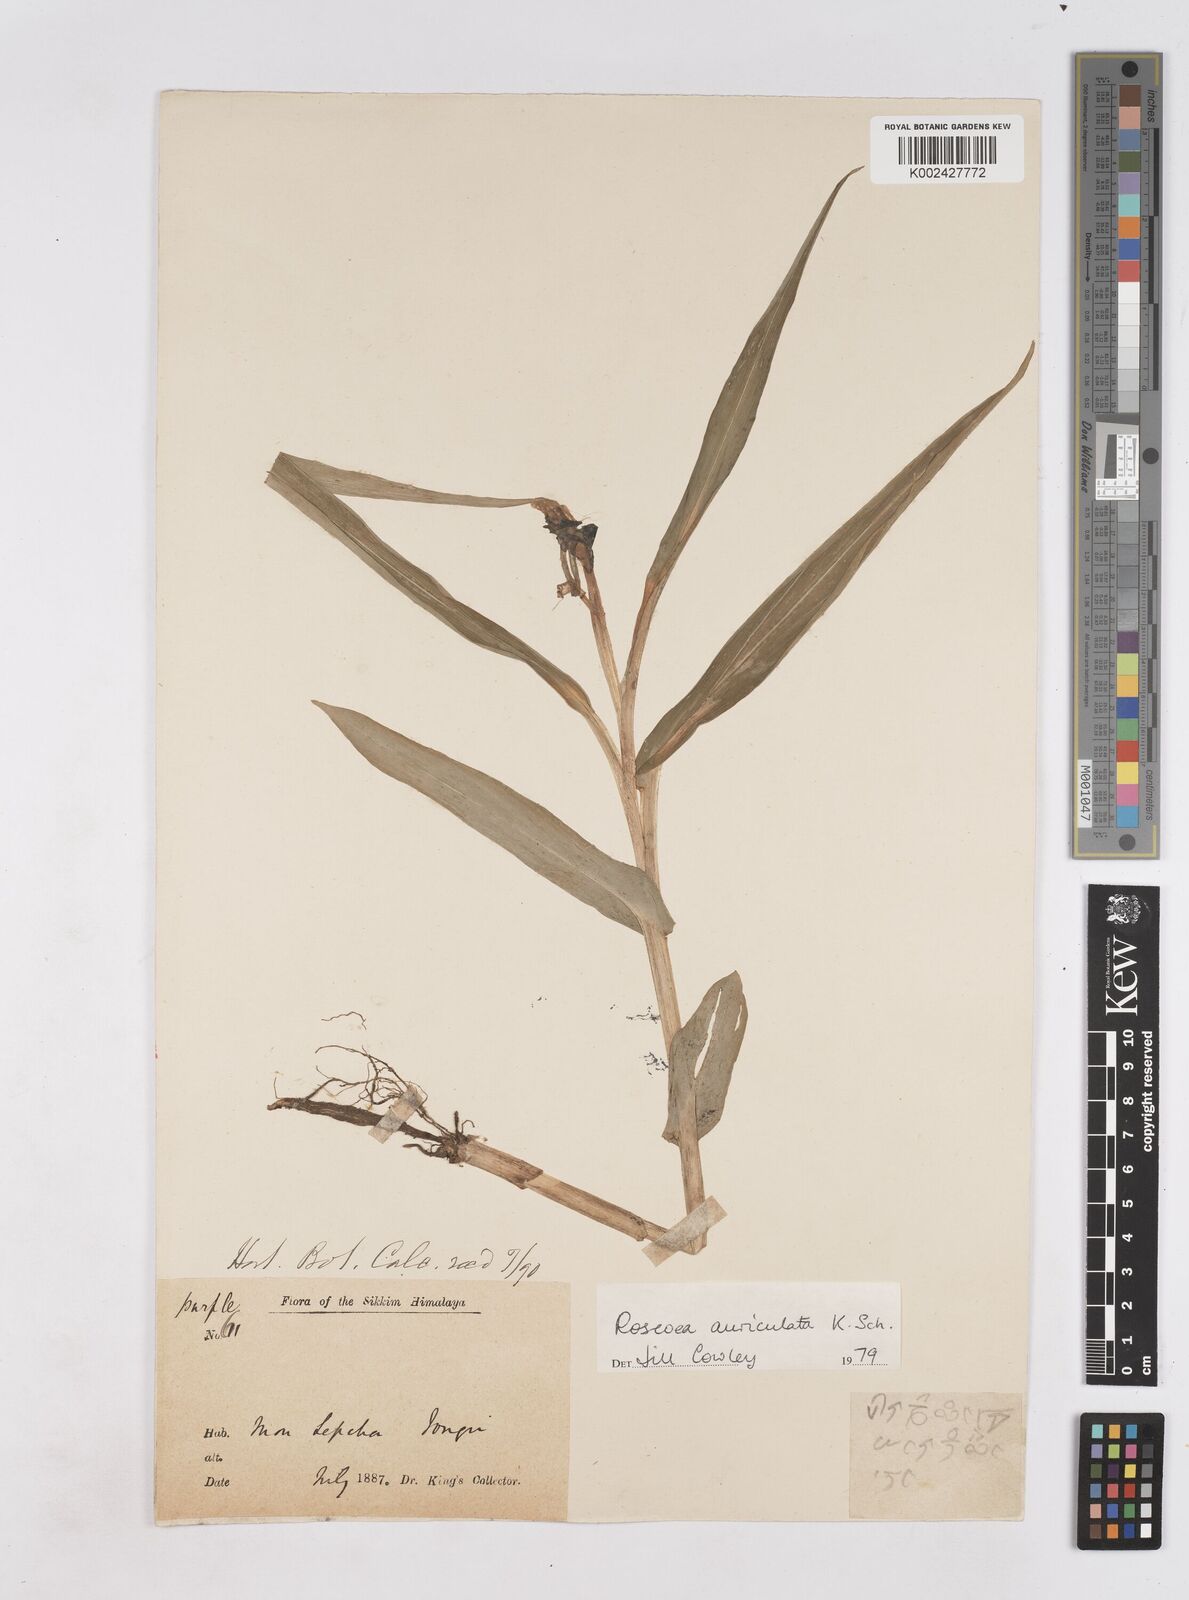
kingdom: Plantae
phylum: Tracheophyta
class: Liliopsida
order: Zingiberales
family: Zingiberaceae
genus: Roscoea
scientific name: Roscoea auriculata
